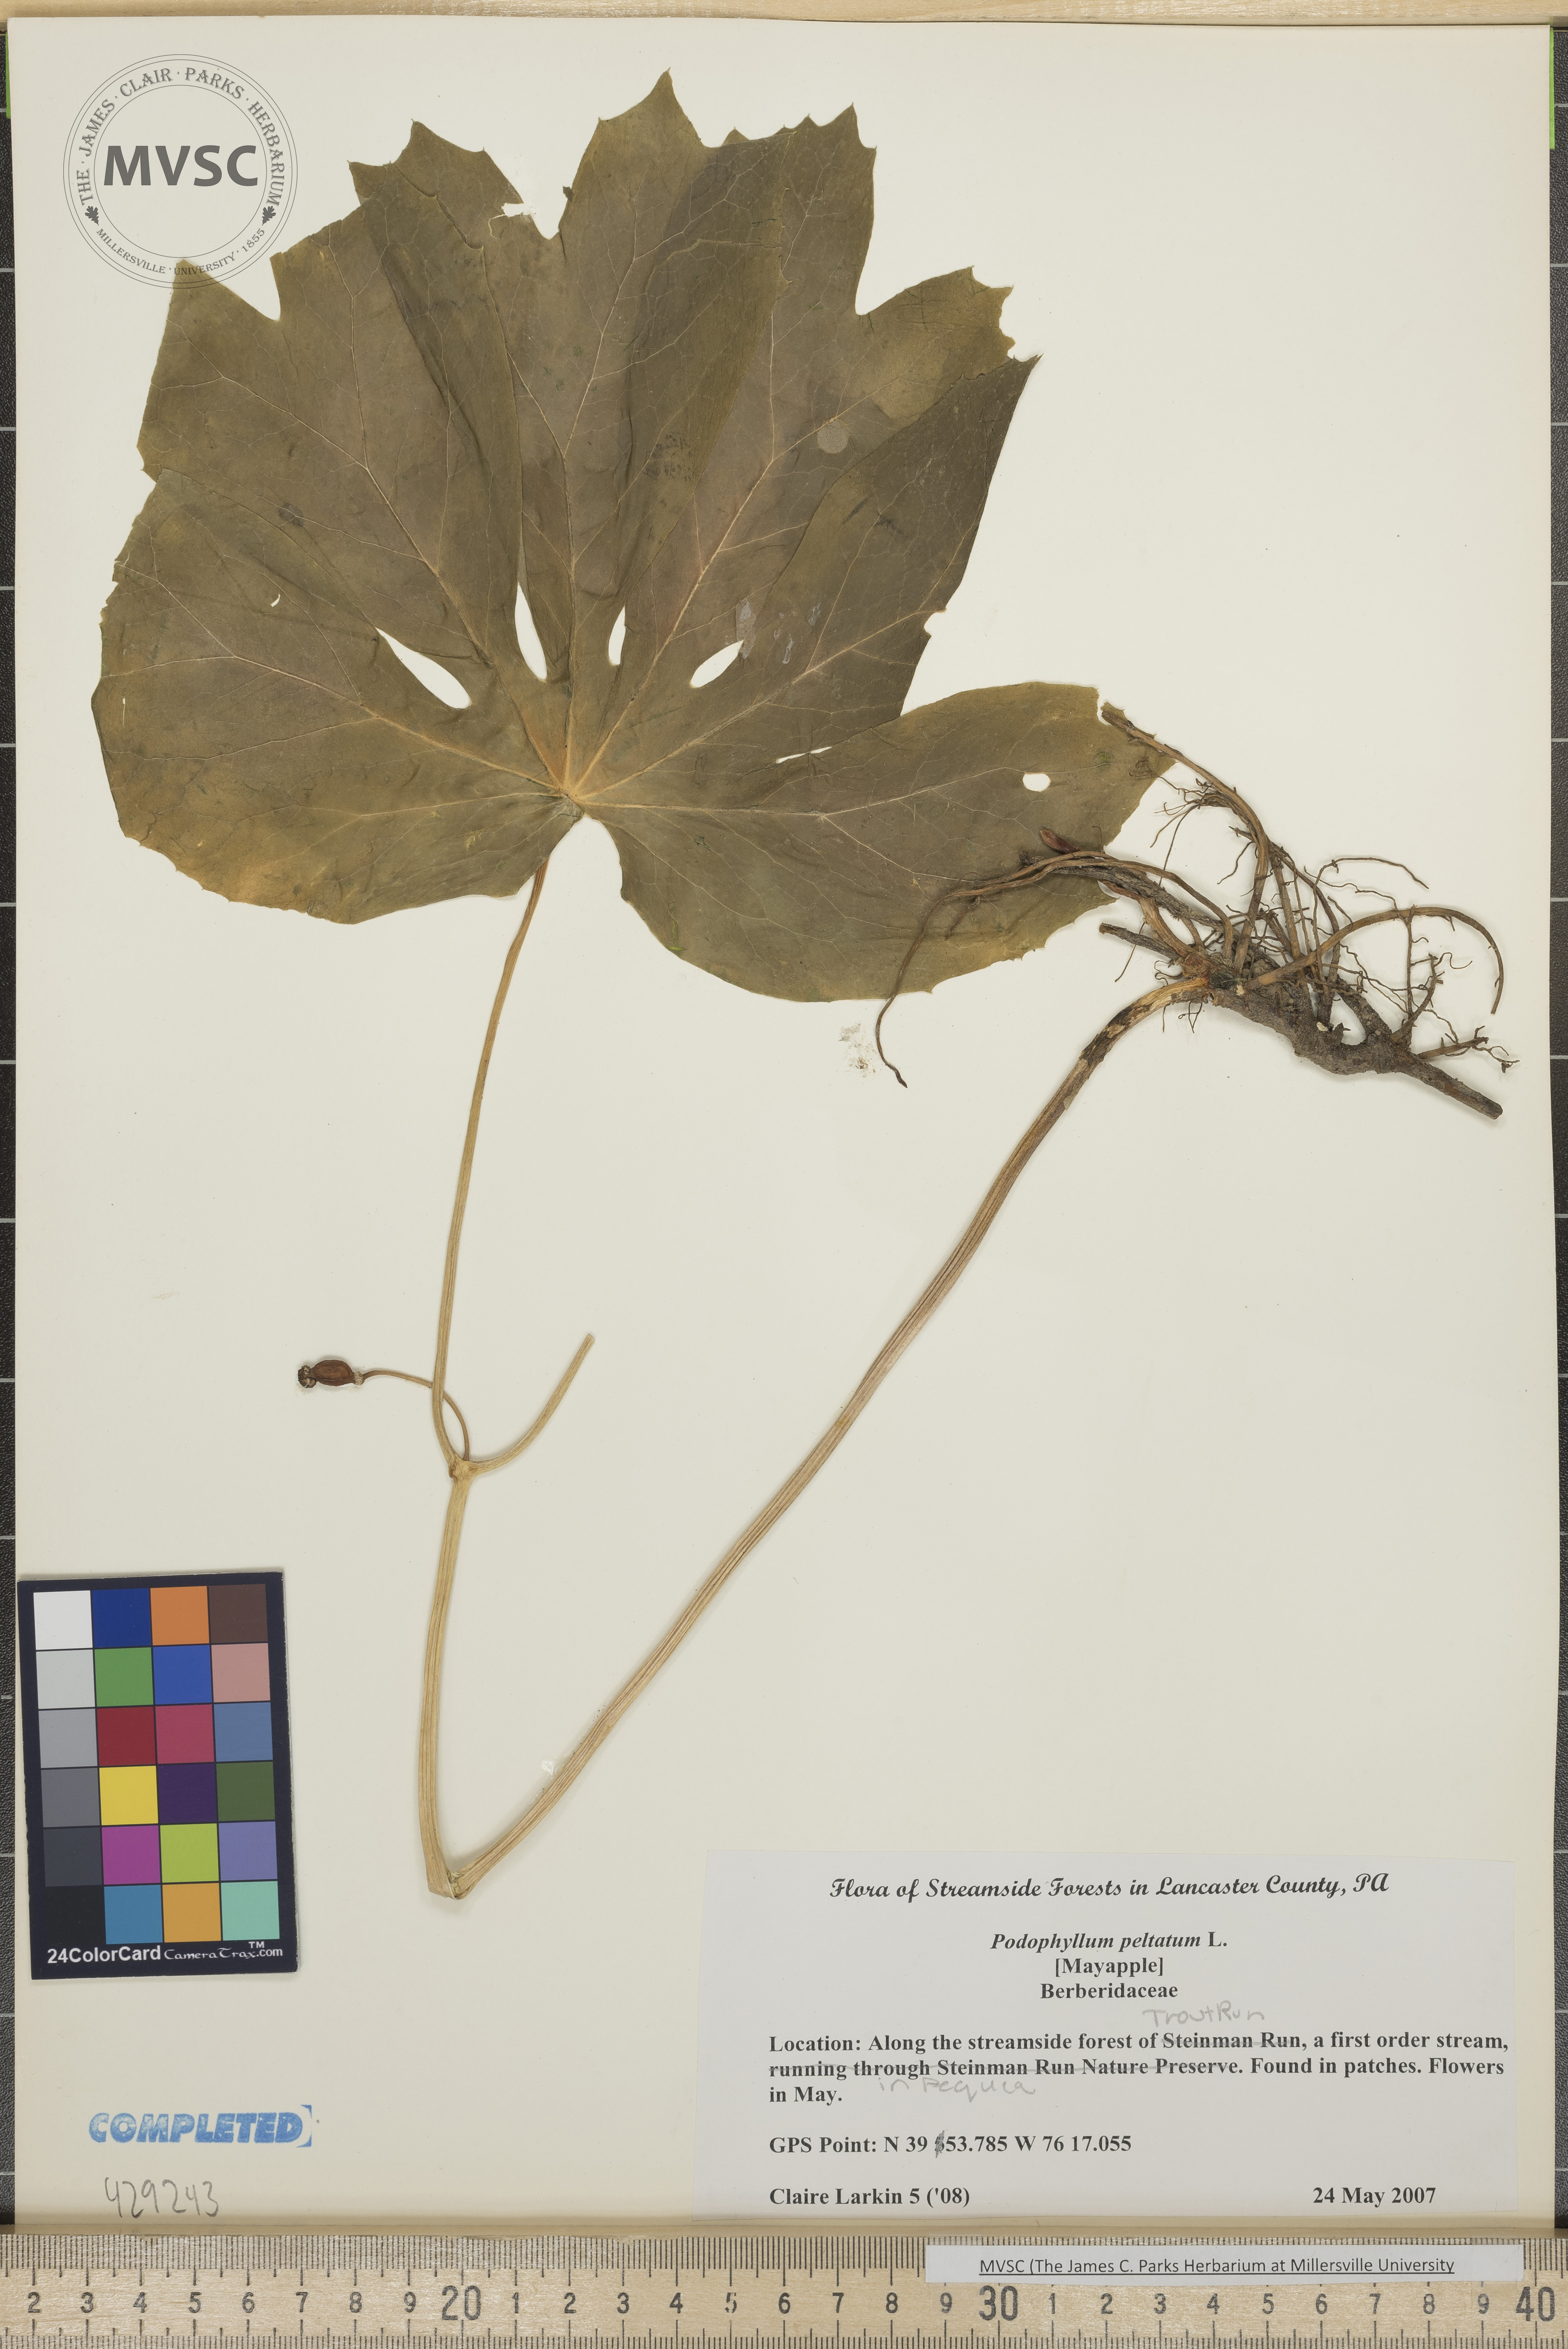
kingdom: Plantae
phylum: Tracheophyta
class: Magnoliopsida
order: Ranunculales
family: Berberidaceae
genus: Podophyllum
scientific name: Podophyllum peltatum
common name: May apple
